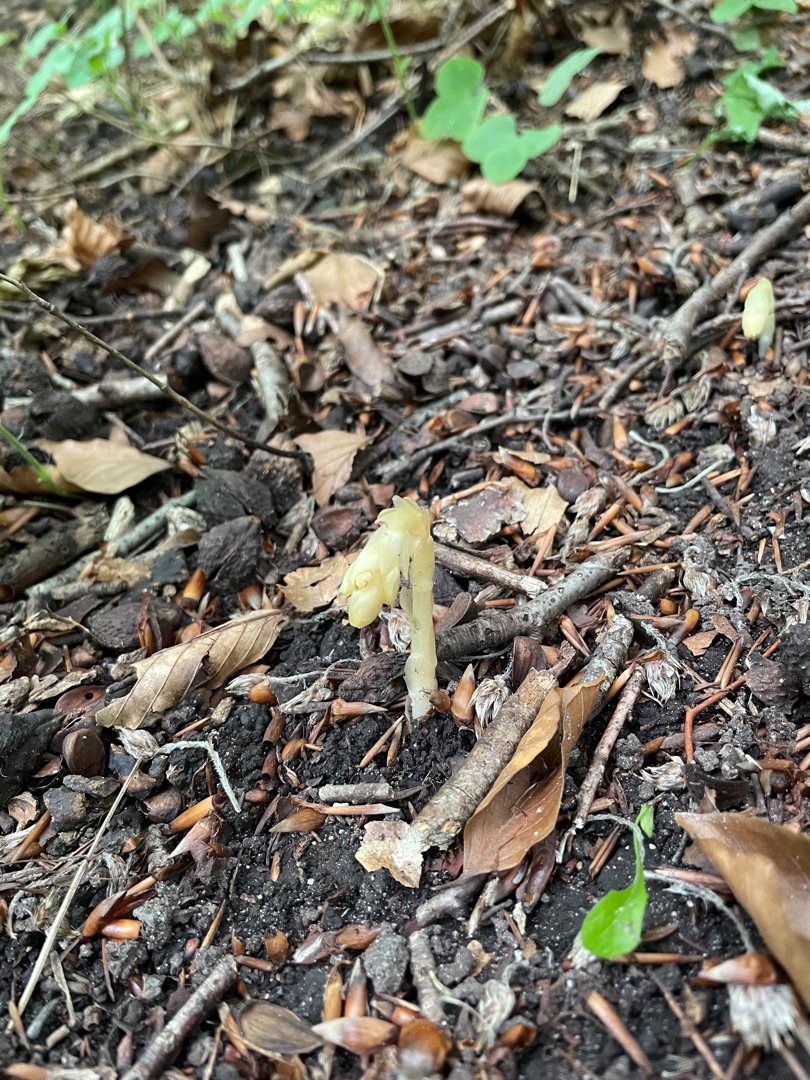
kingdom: Plantae
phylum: Tracheophyta
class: Magnoliopsida
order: Ericales
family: Ericaceae
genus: Hypopitys
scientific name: Hypopitys monotropa
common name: Snylterod
